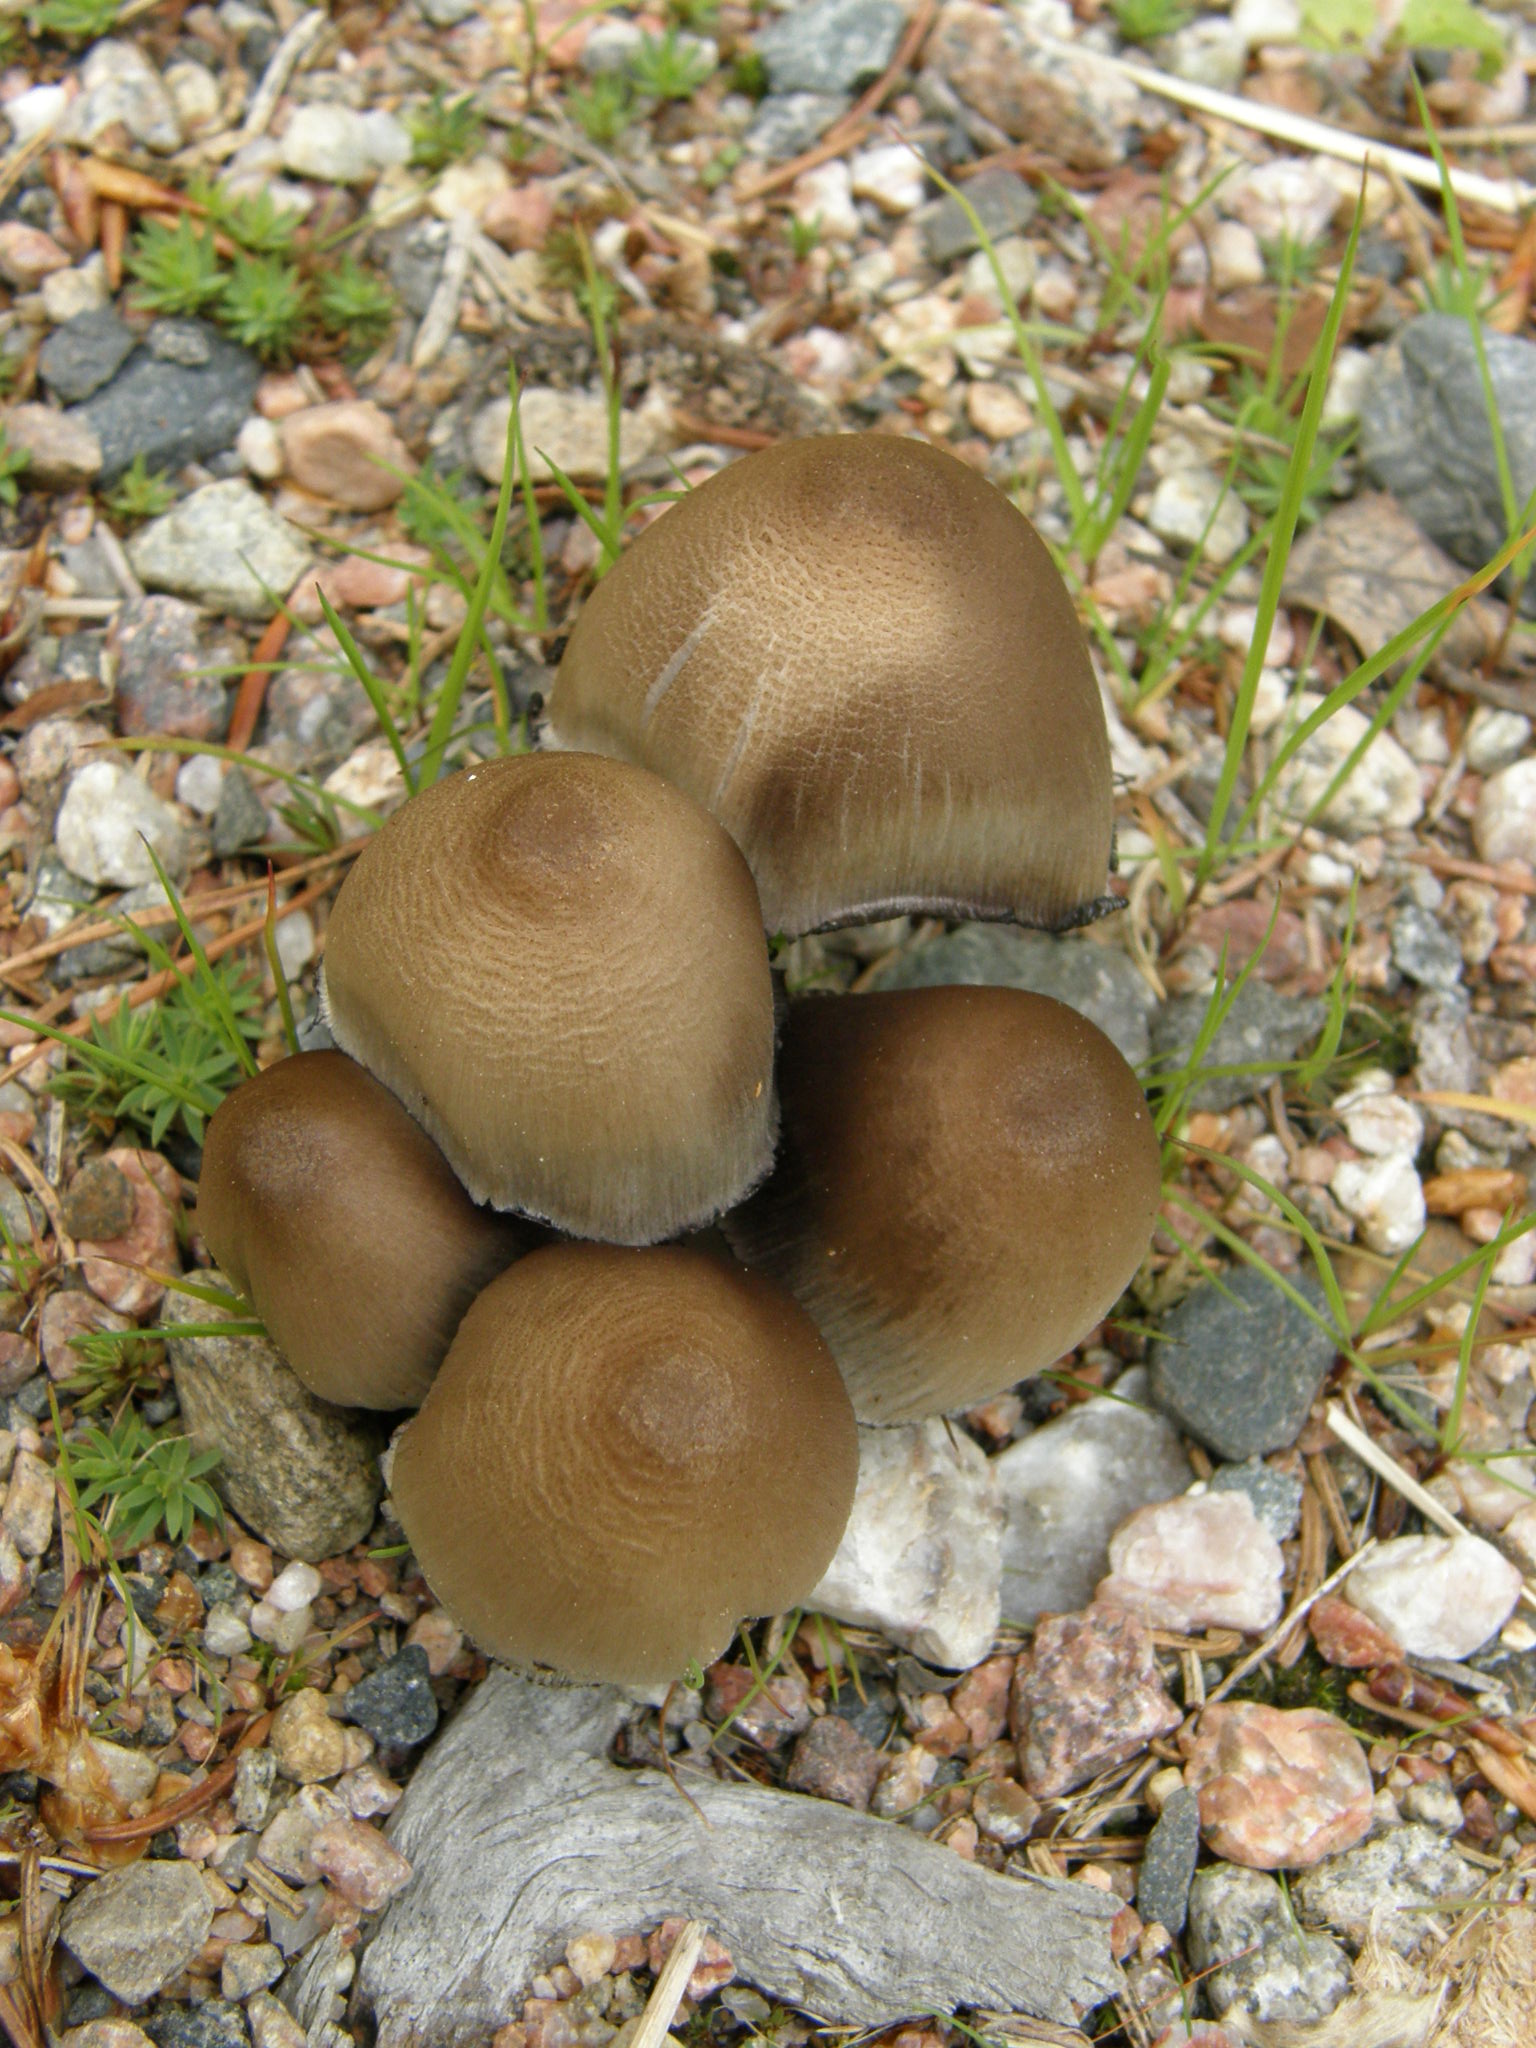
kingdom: Fungi
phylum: Basidiomycota
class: Agaricomycetes
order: Agaricales
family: Psathyrellaceae
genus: Coprinopsis
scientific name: Coprinopsis atramentaria
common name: Common ink-cap
